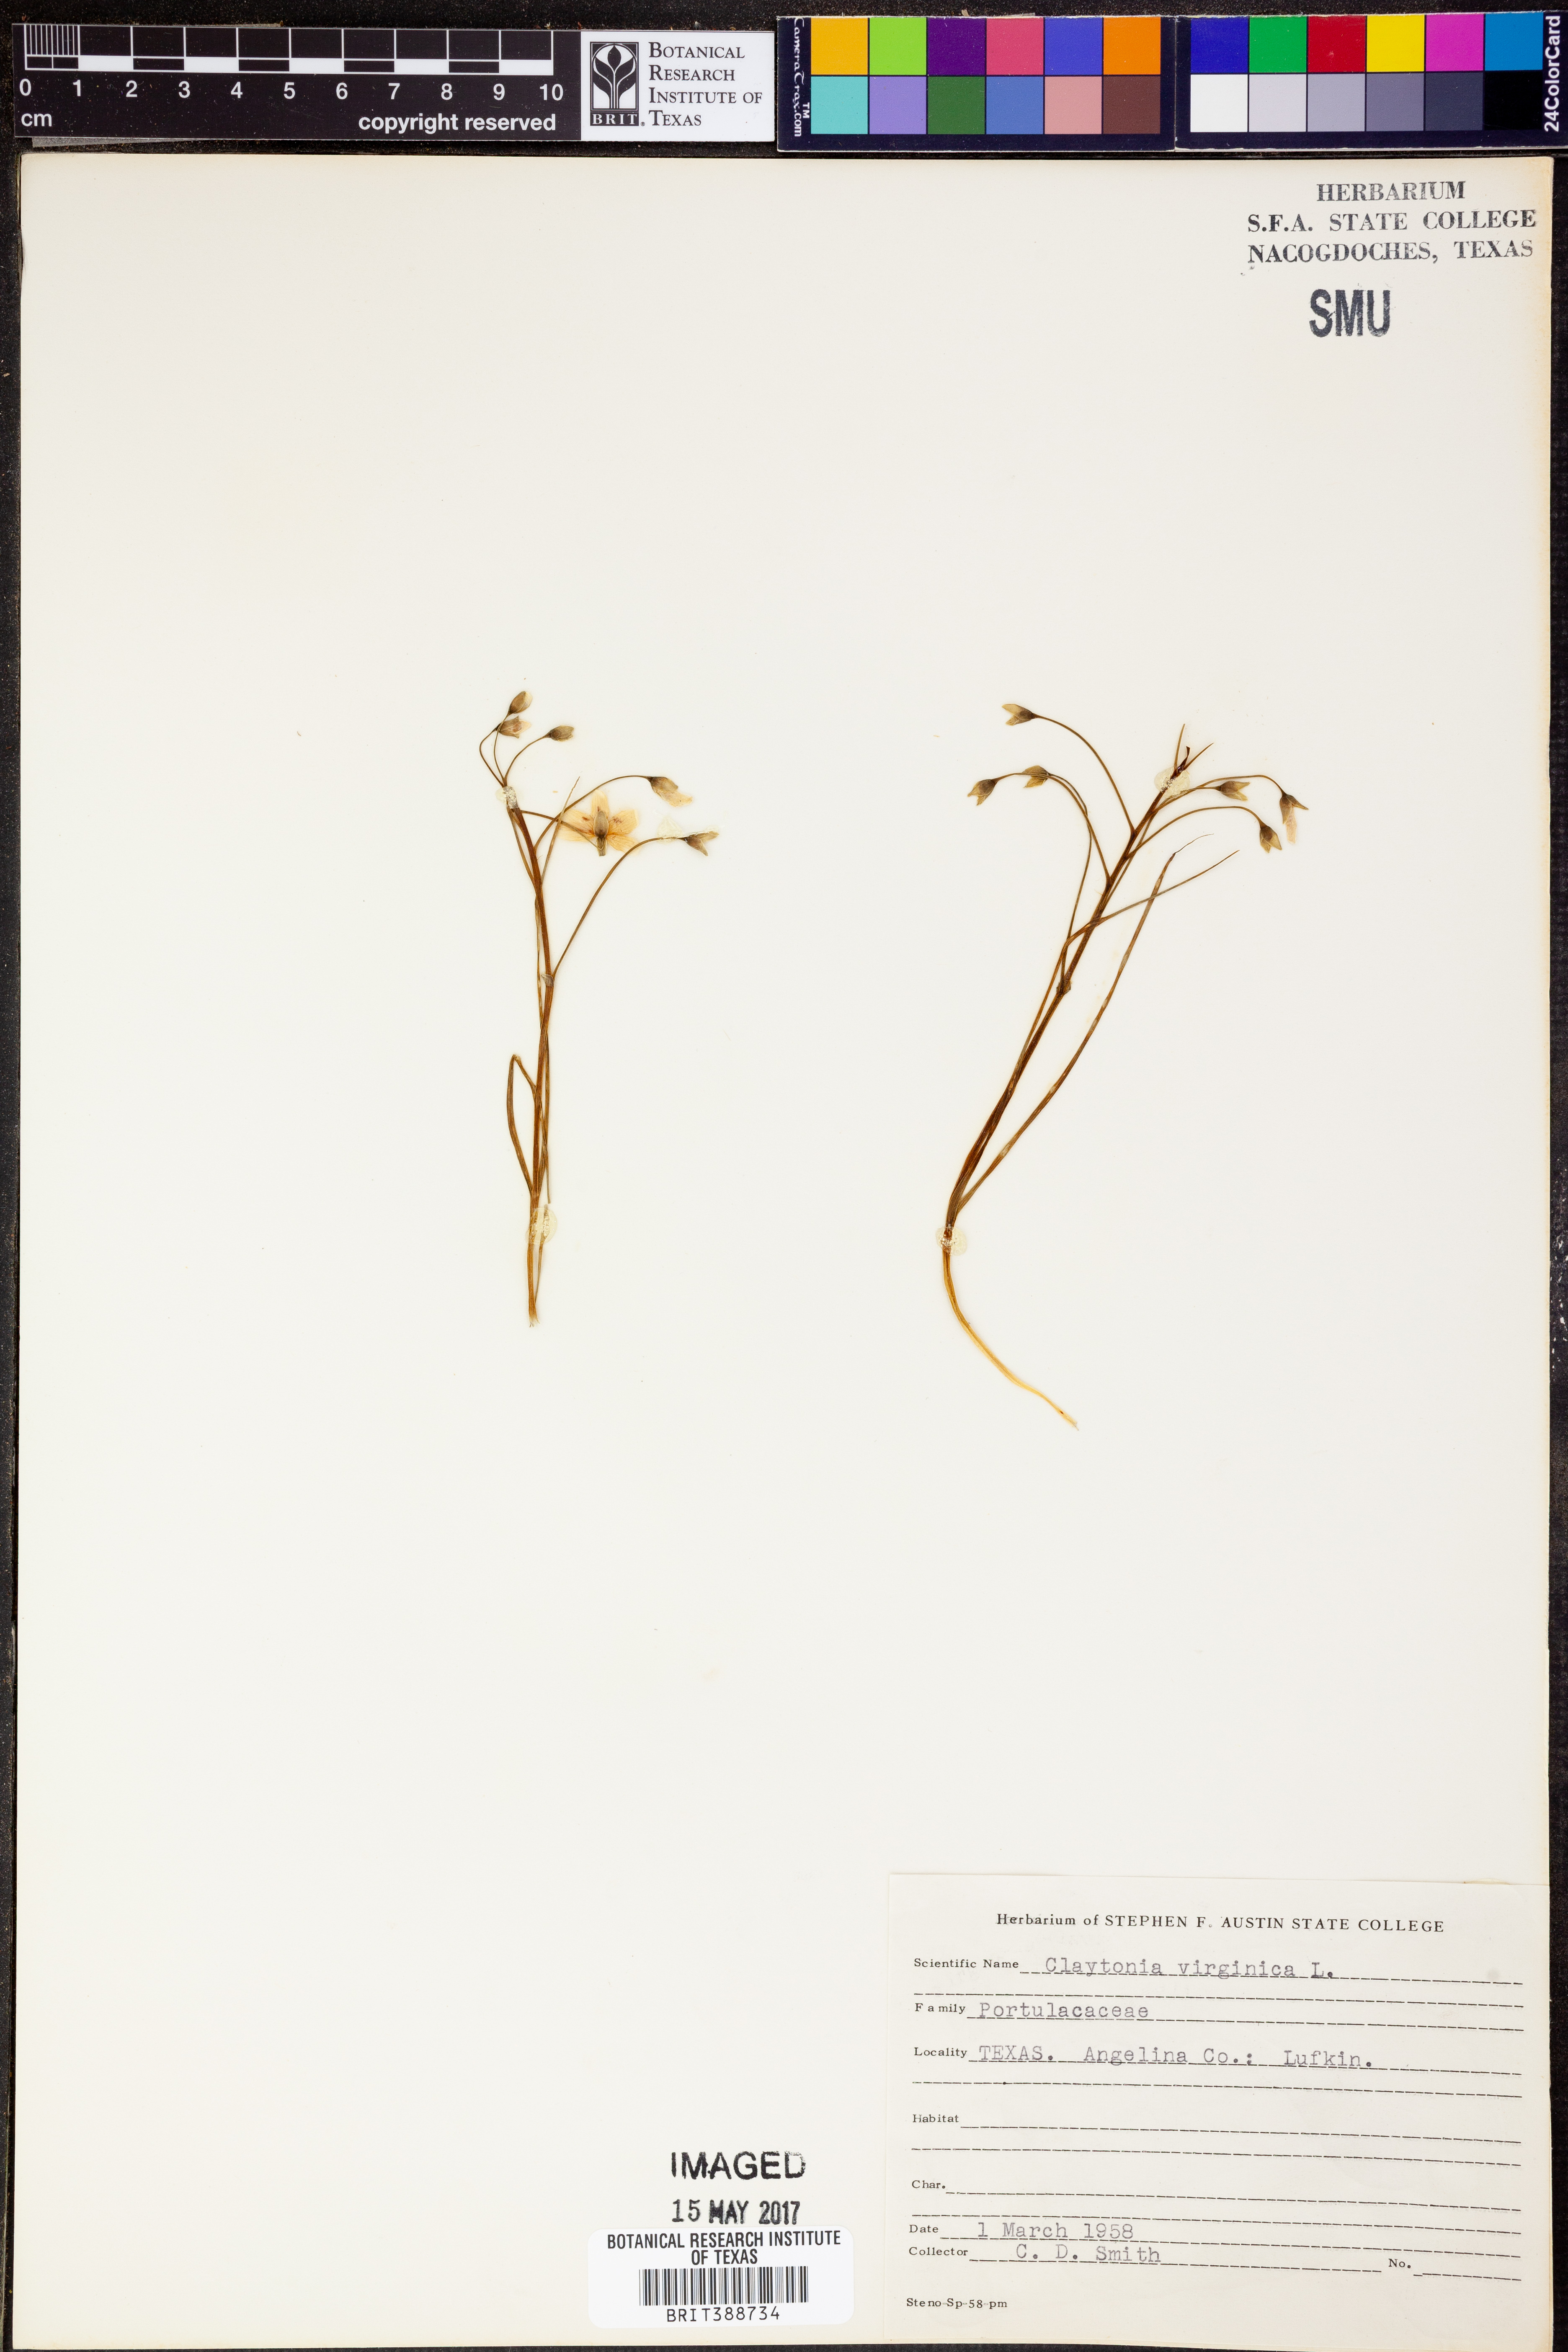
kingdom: Plantae
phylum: Tracheophyta
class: Magnoliopsida
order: Caryophyllales
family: Montiaceae
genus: Claytonia
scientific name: Claytonia virginica
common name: Virginia springbeauty
